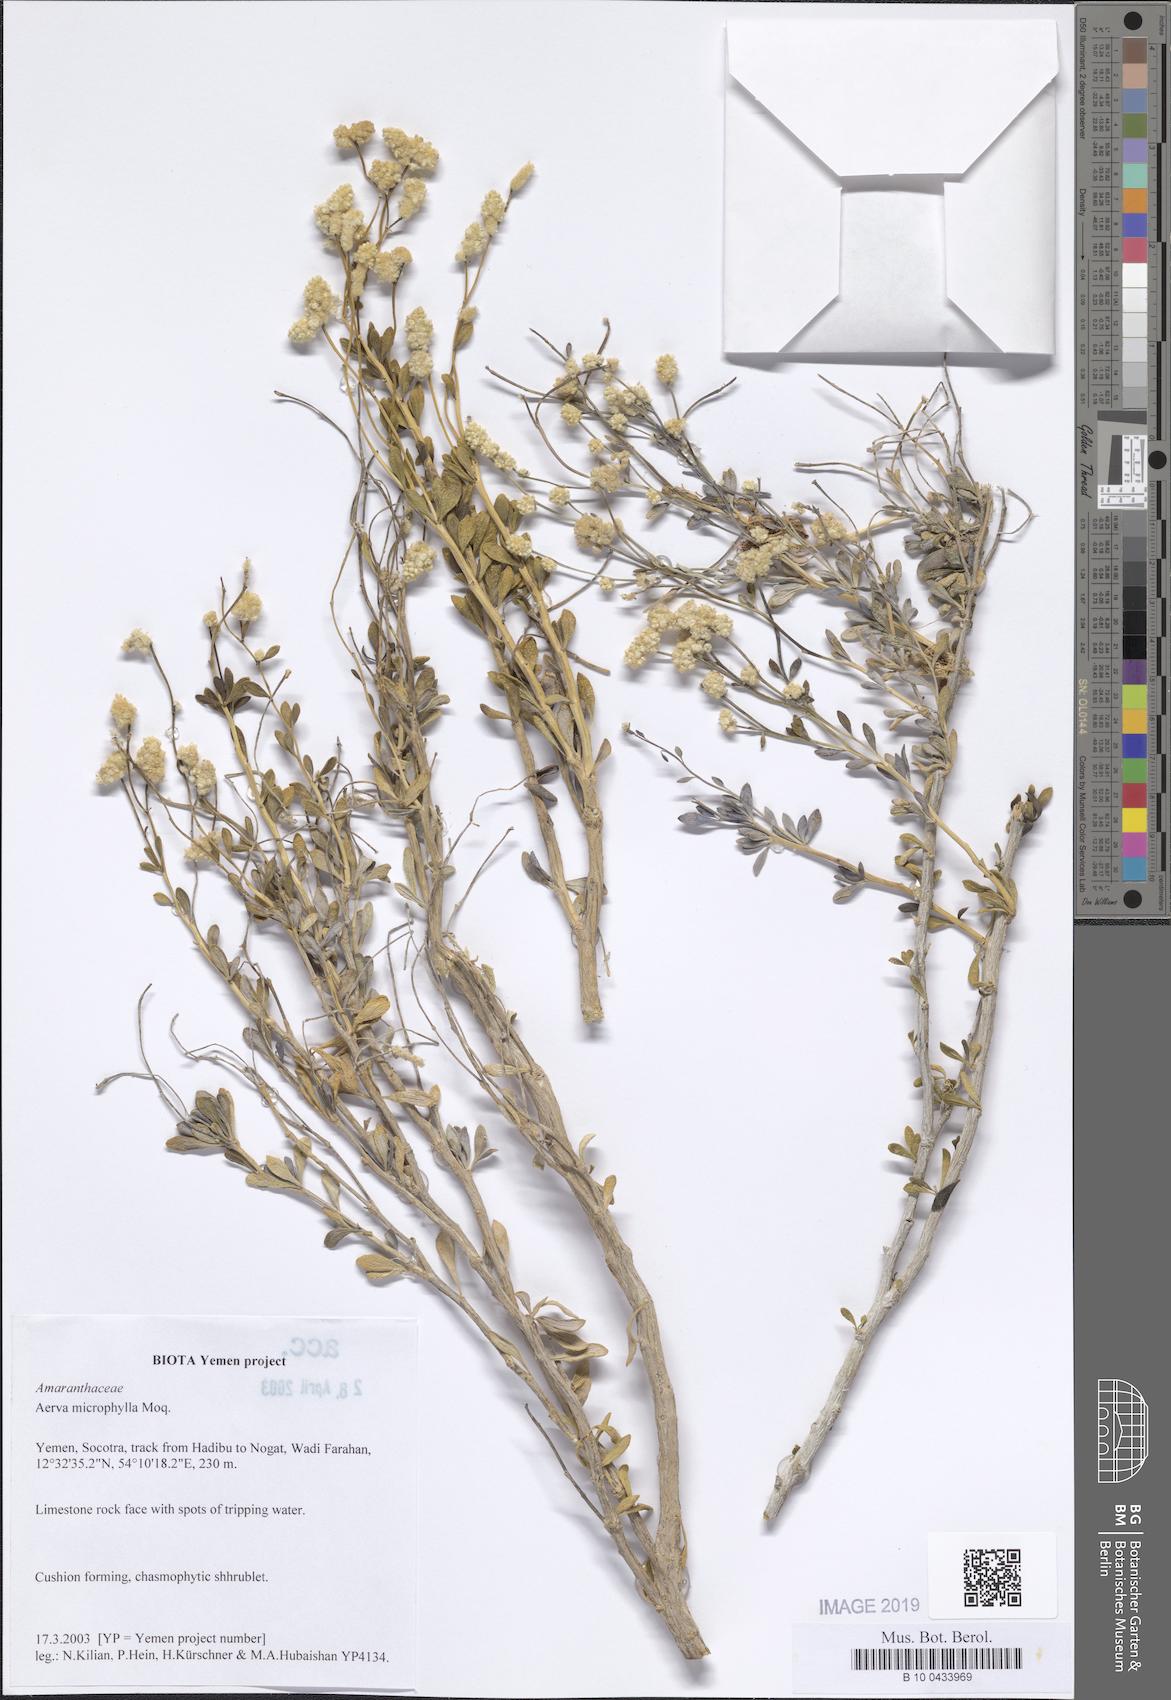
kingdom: Plantae
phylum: Tracheophyta
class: Magnoliopsida
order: Caryophyllales
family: Amaranthaceae
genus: Paraerva
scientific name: Paraerva microphylla
